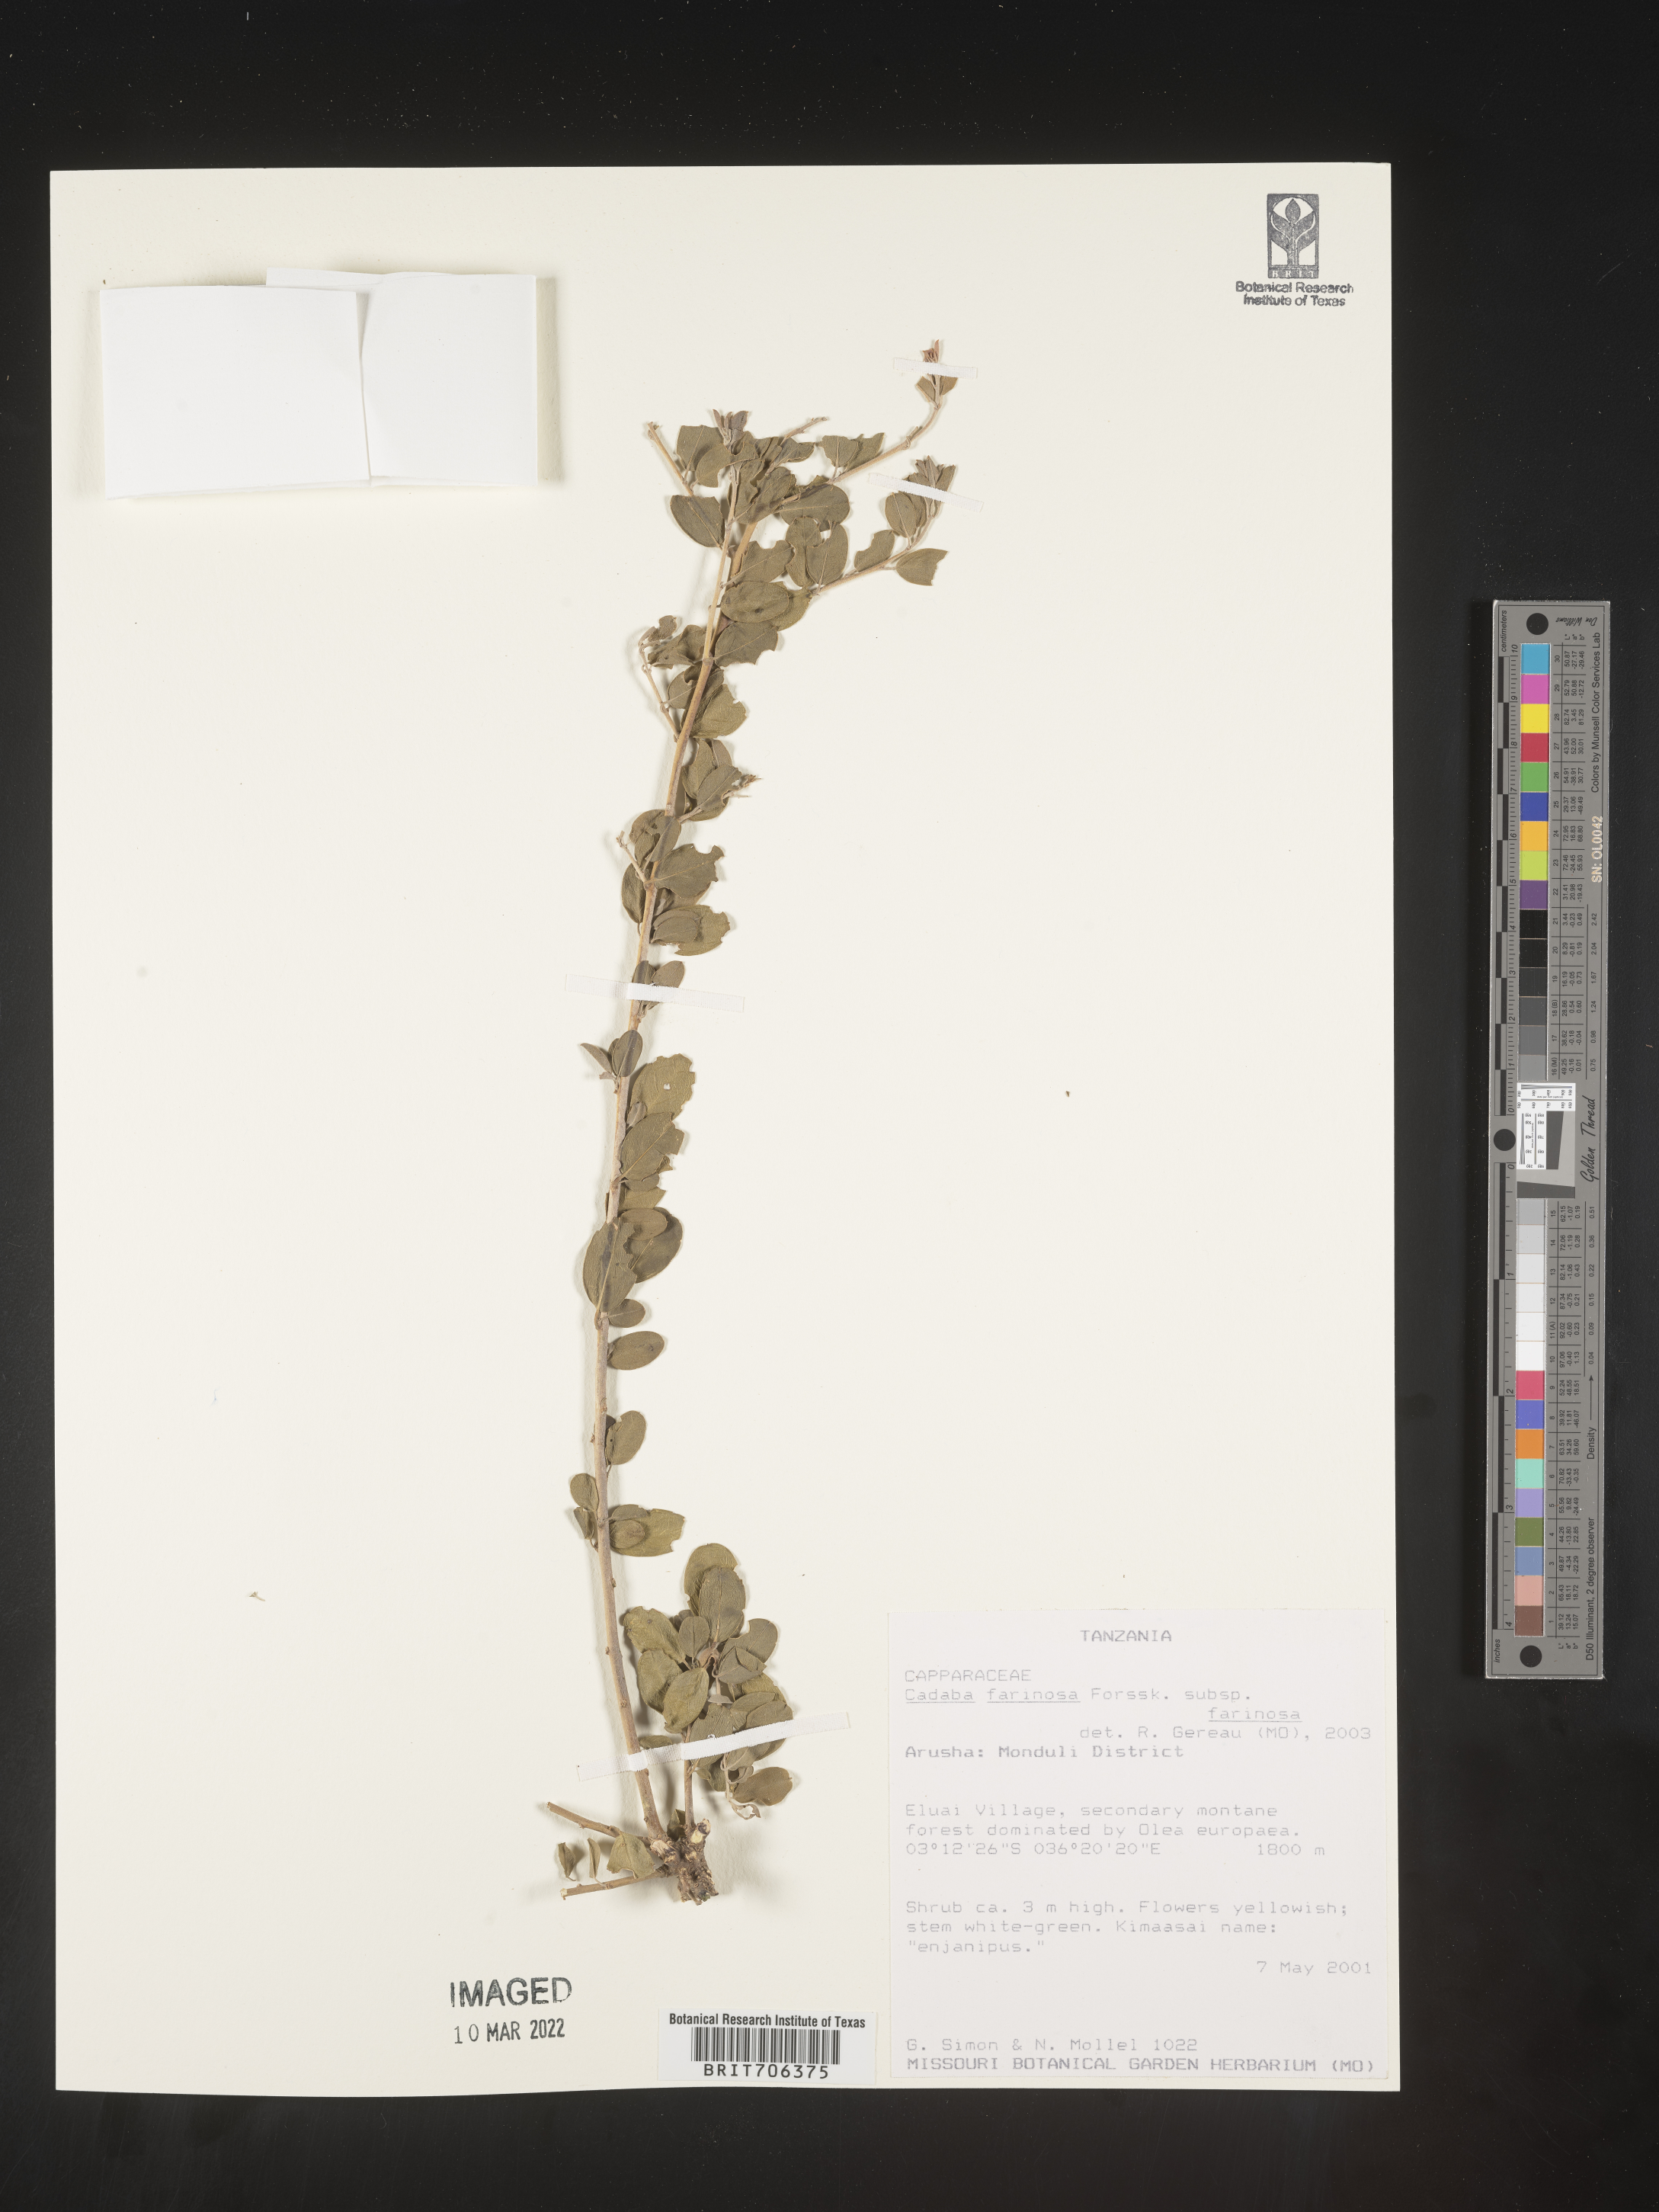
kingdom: Plantae
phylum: Tracheophyta
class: Magnoliopsida
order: Brassicales
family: Capparaceae
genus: Cadaba
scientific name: Cadaba
